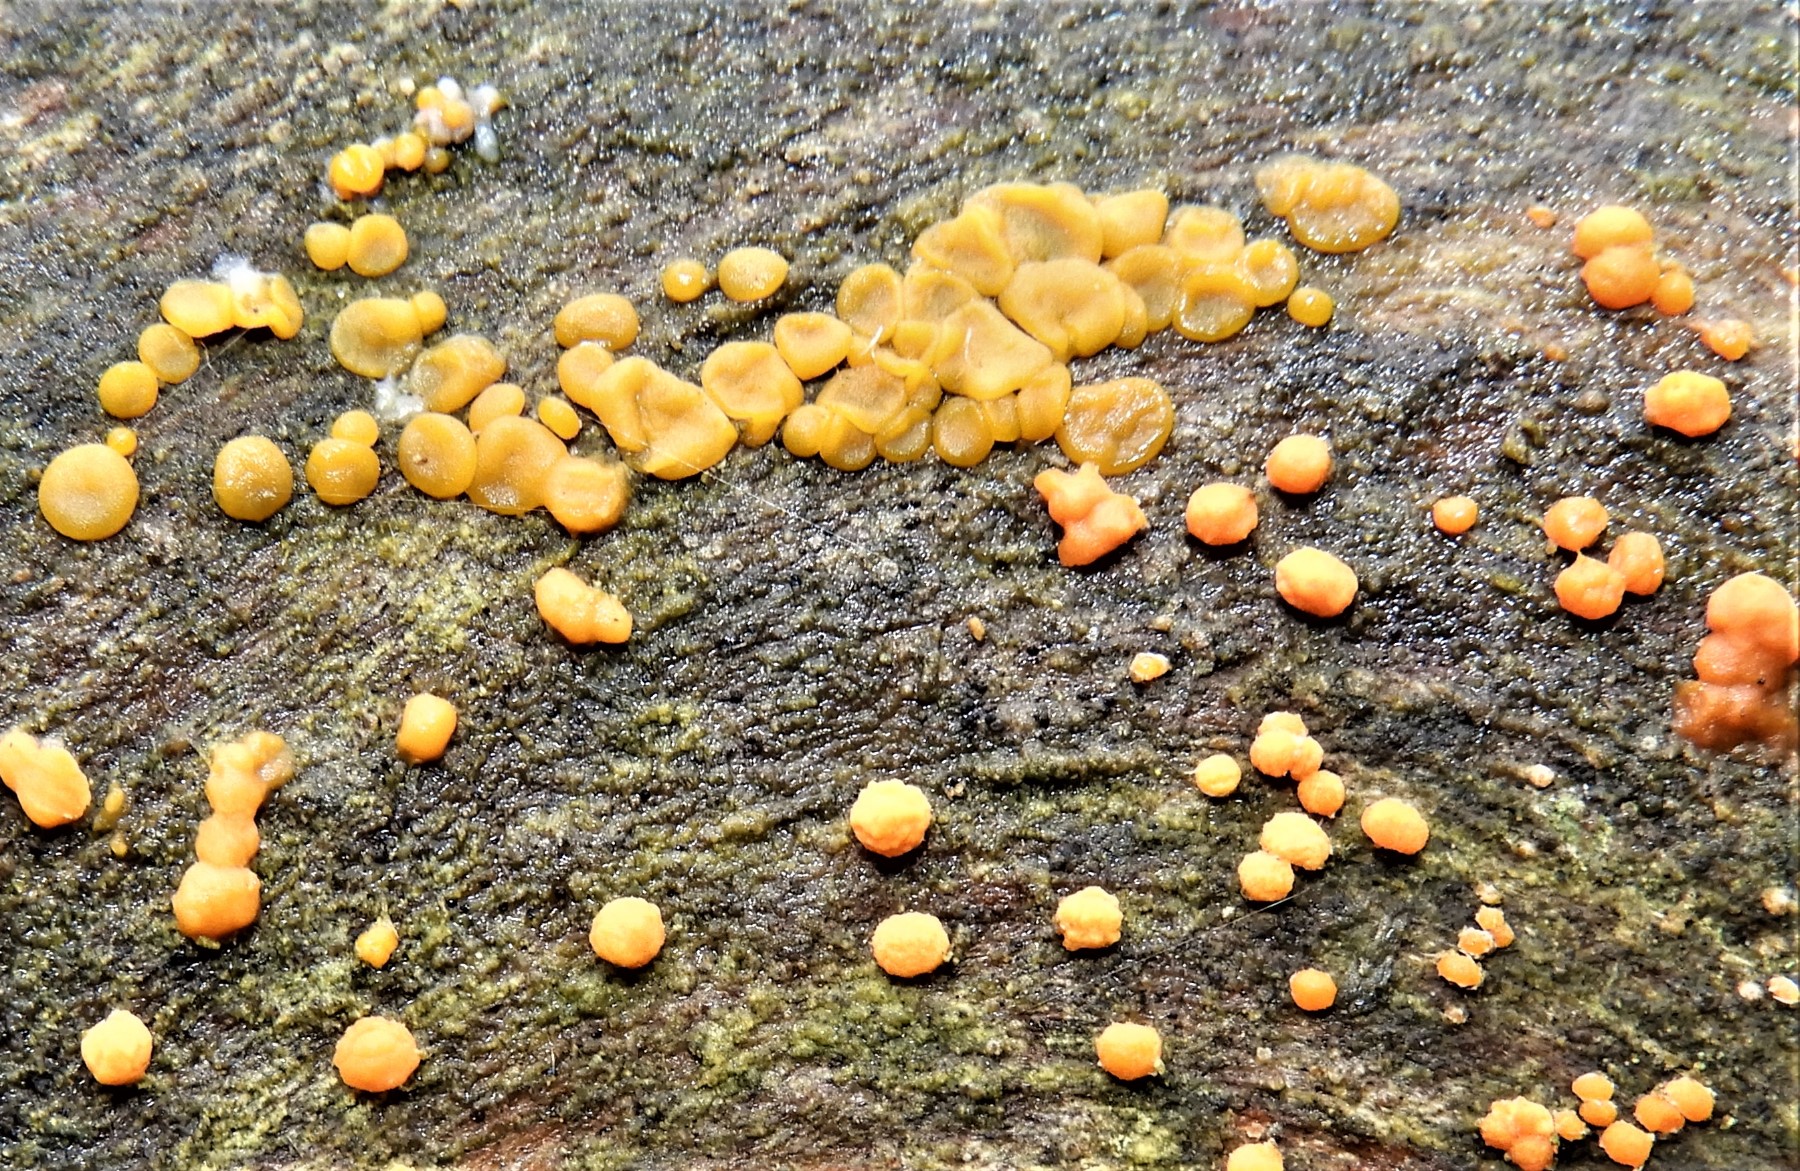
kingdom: Fungi
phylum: Basidiomycota
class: Dacrymycetes
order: Dacrymycetales
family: Dacrymycetaceae
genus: Dacrymyces
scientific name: Dacrymyces stillatus
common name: almindelig tåresvamp
